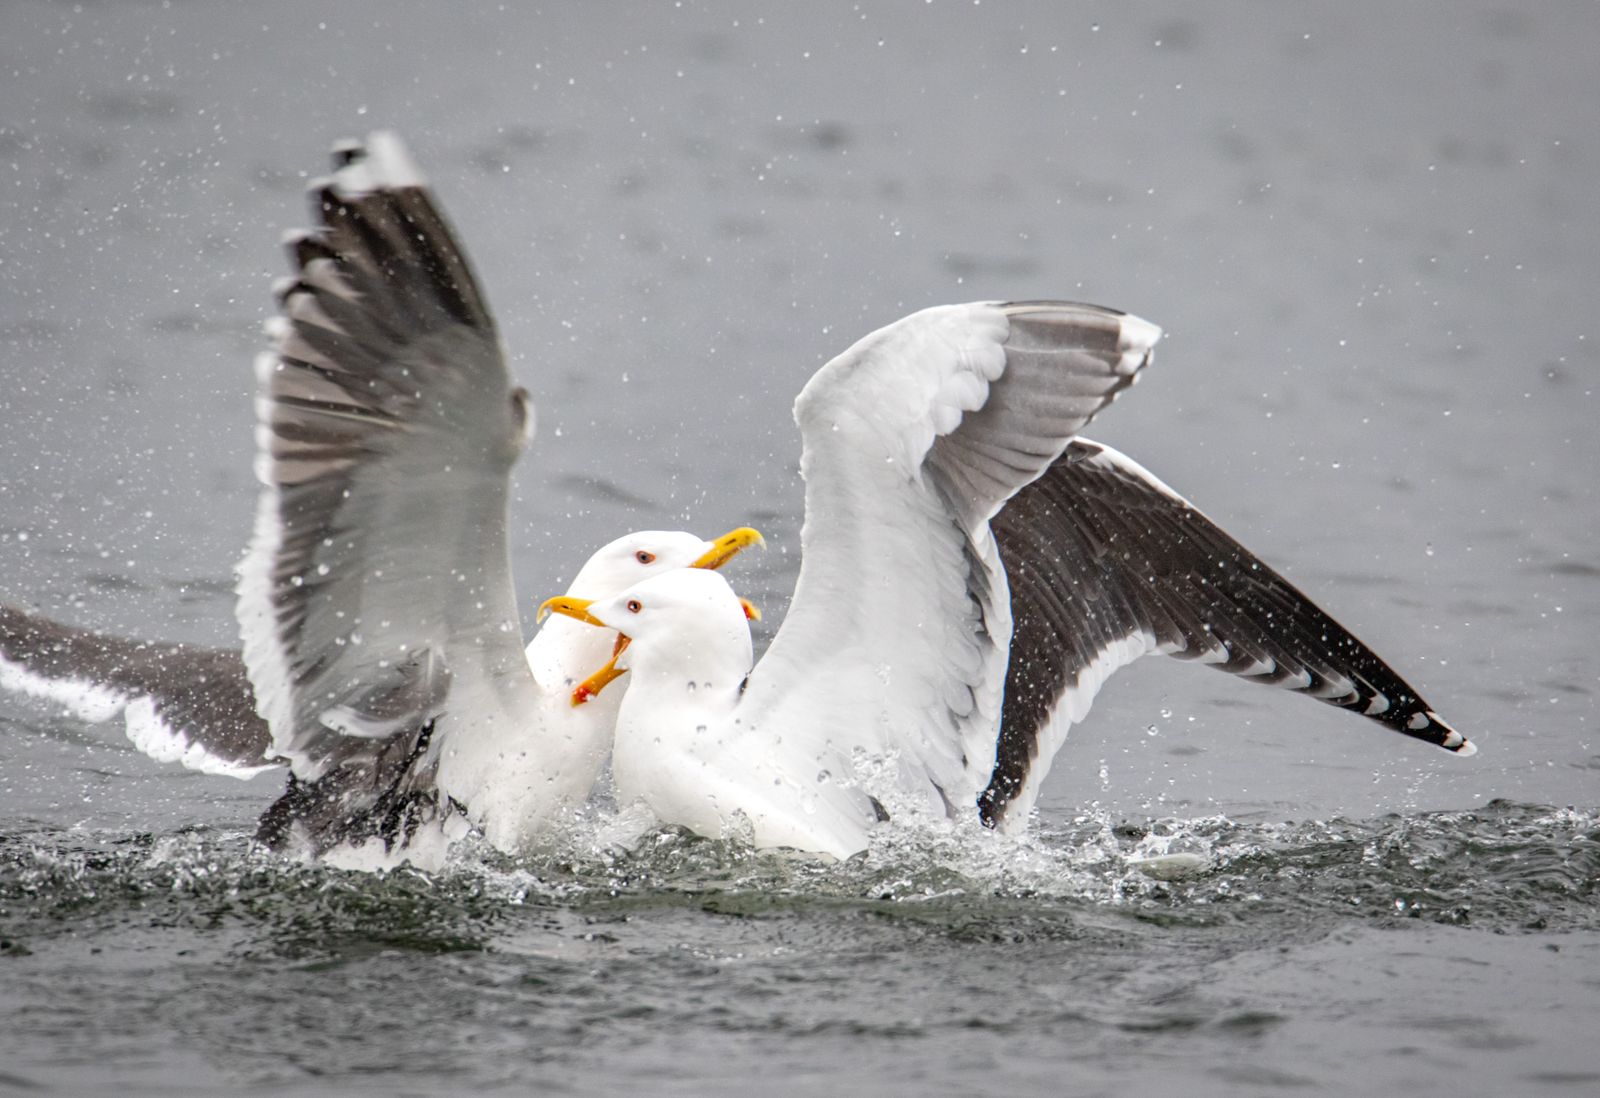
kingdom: Animalia
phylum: Chordata
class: Aves
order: Charadriiformes
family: Laridae
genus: Larus
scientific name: Larus marinus
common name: Great black-backed gull
